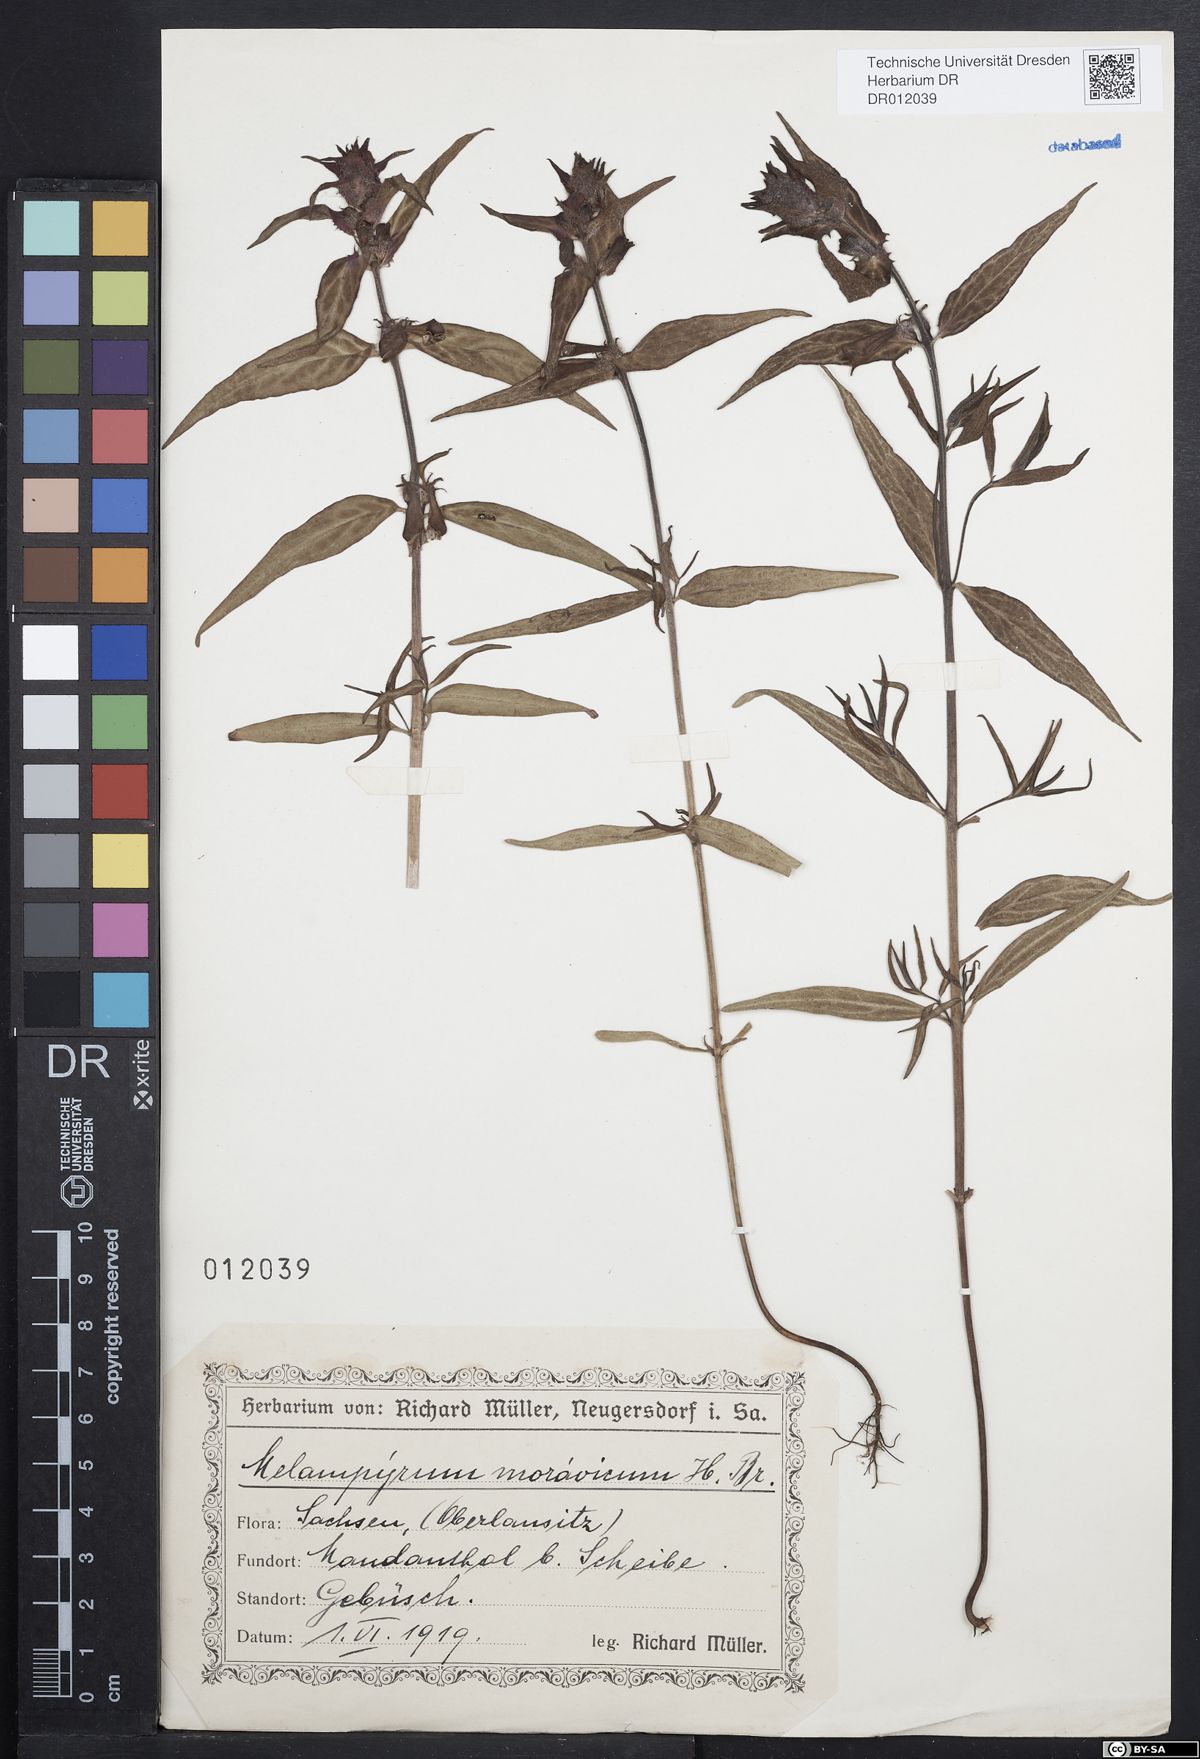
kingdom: Plantae
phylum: Tracheophyta
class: Magnoliopsida
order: Lamiales
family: Orobanchaceae
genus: Melampyrum
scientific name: Melampyrum nemorosum
